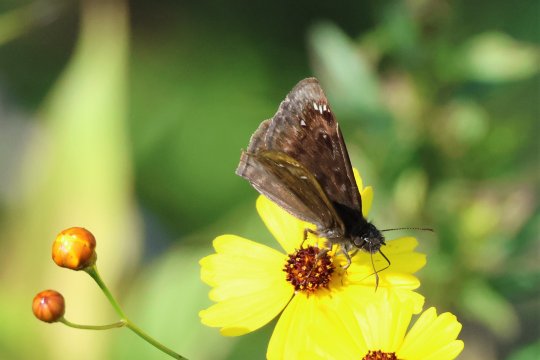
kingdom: Animalia
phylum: Arthropoda
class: Insecta
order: Lepidoptera
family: Hesperiidae
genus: Erynnis
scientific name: Erynnis
